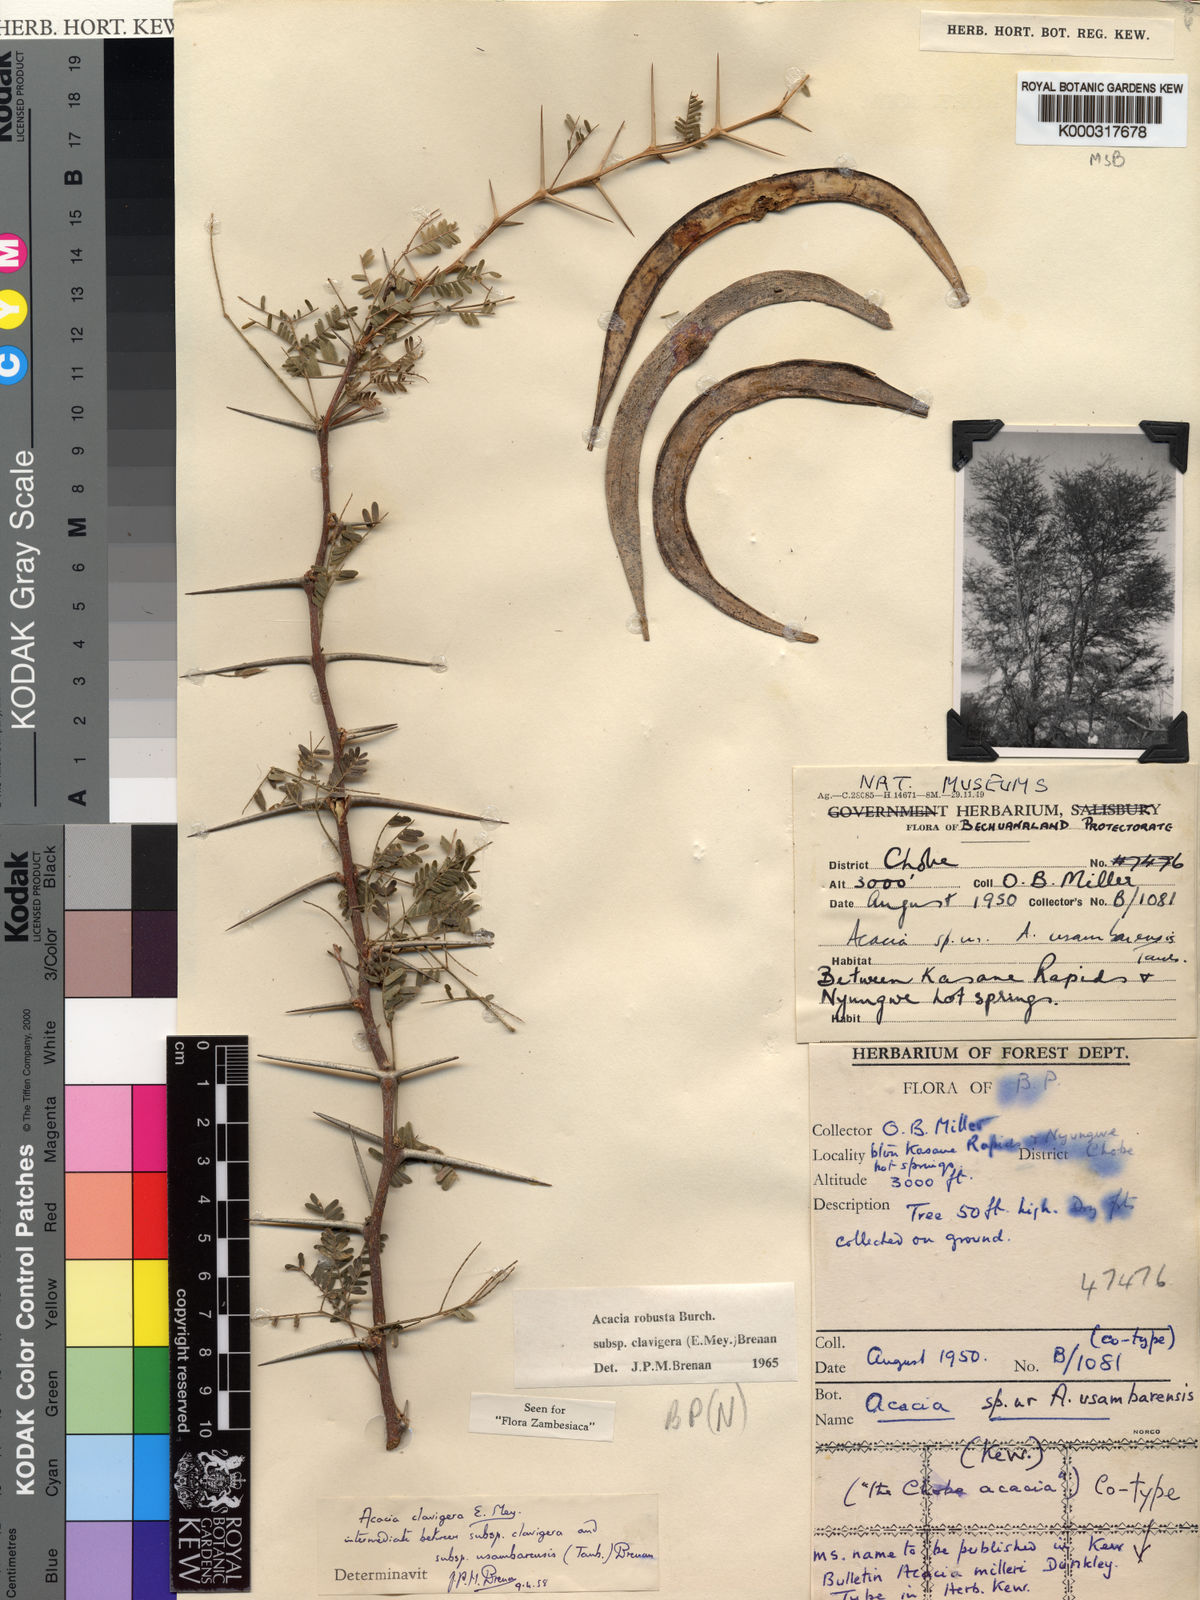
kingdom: Plantae
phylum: Tracheophyta
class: Magnoliopsida
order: Fabales
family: Fabaceae
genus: Vachellia
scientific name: Vachellia robusta
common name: Ankle thorn
